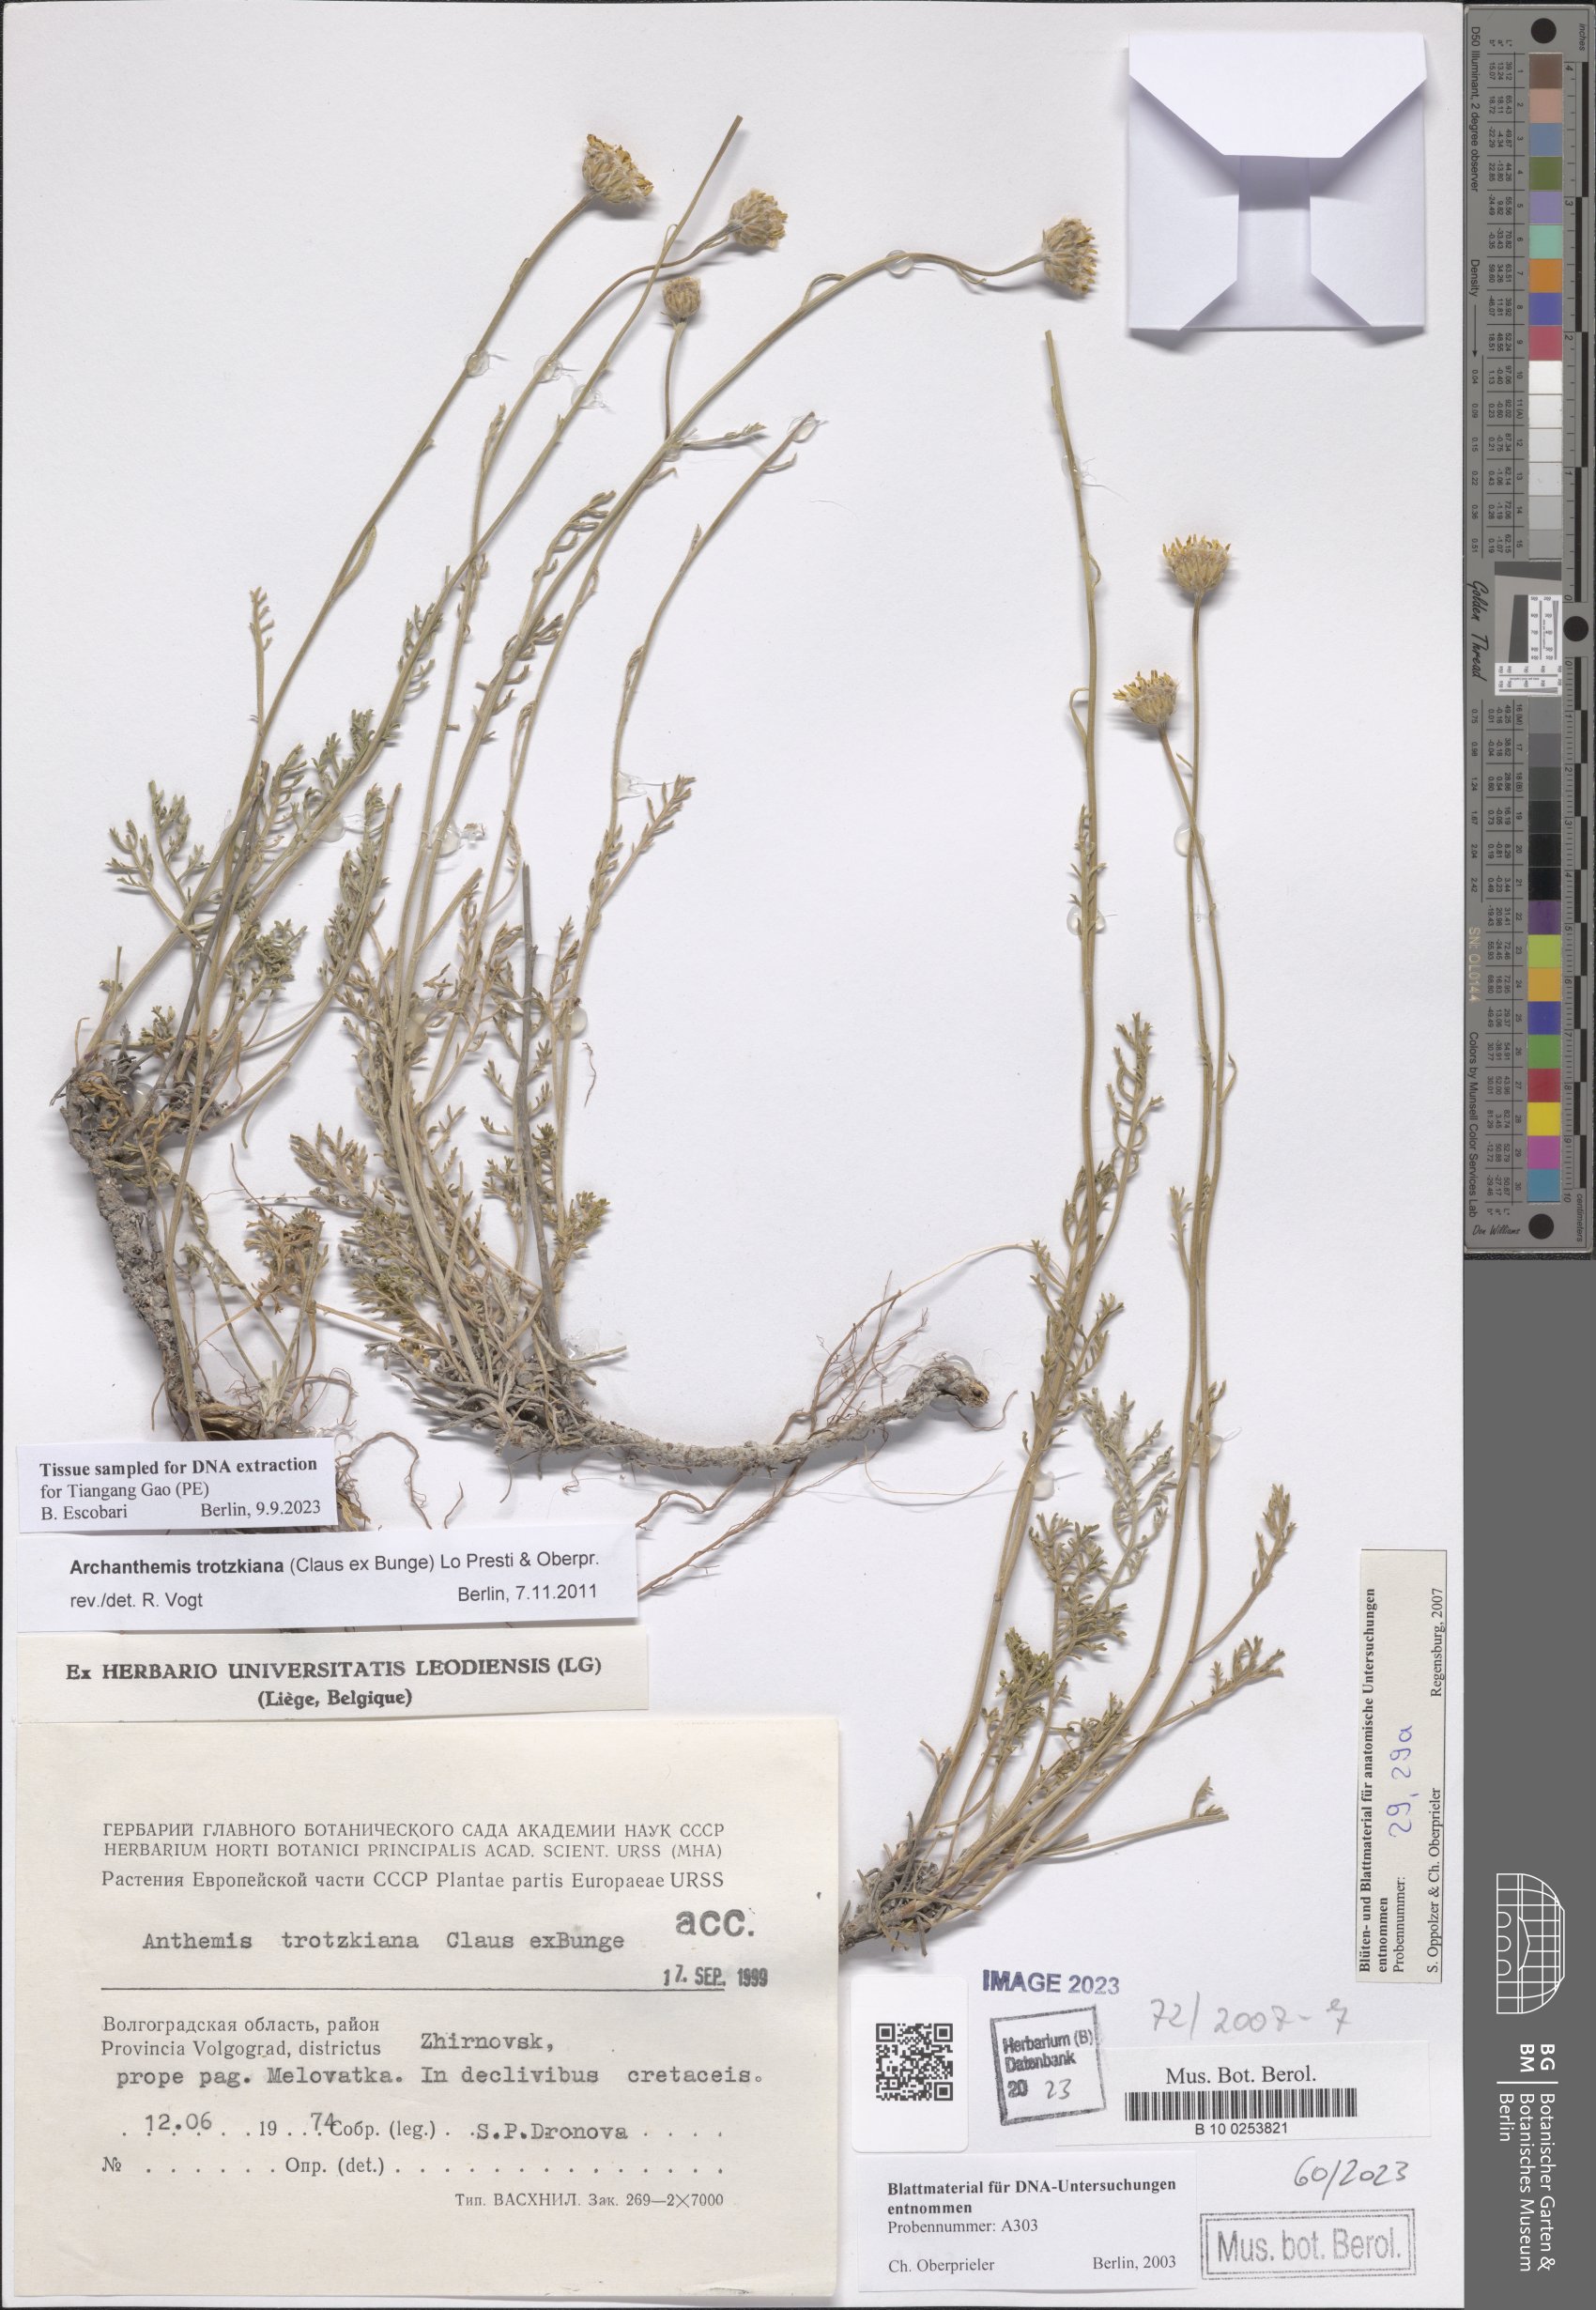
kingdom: Plantae
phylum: Tracheophyta
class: Magnoliopsida
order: Asterales
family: Asteraceae
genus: Archanthemis
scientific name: Archanthemis trotzkiana
